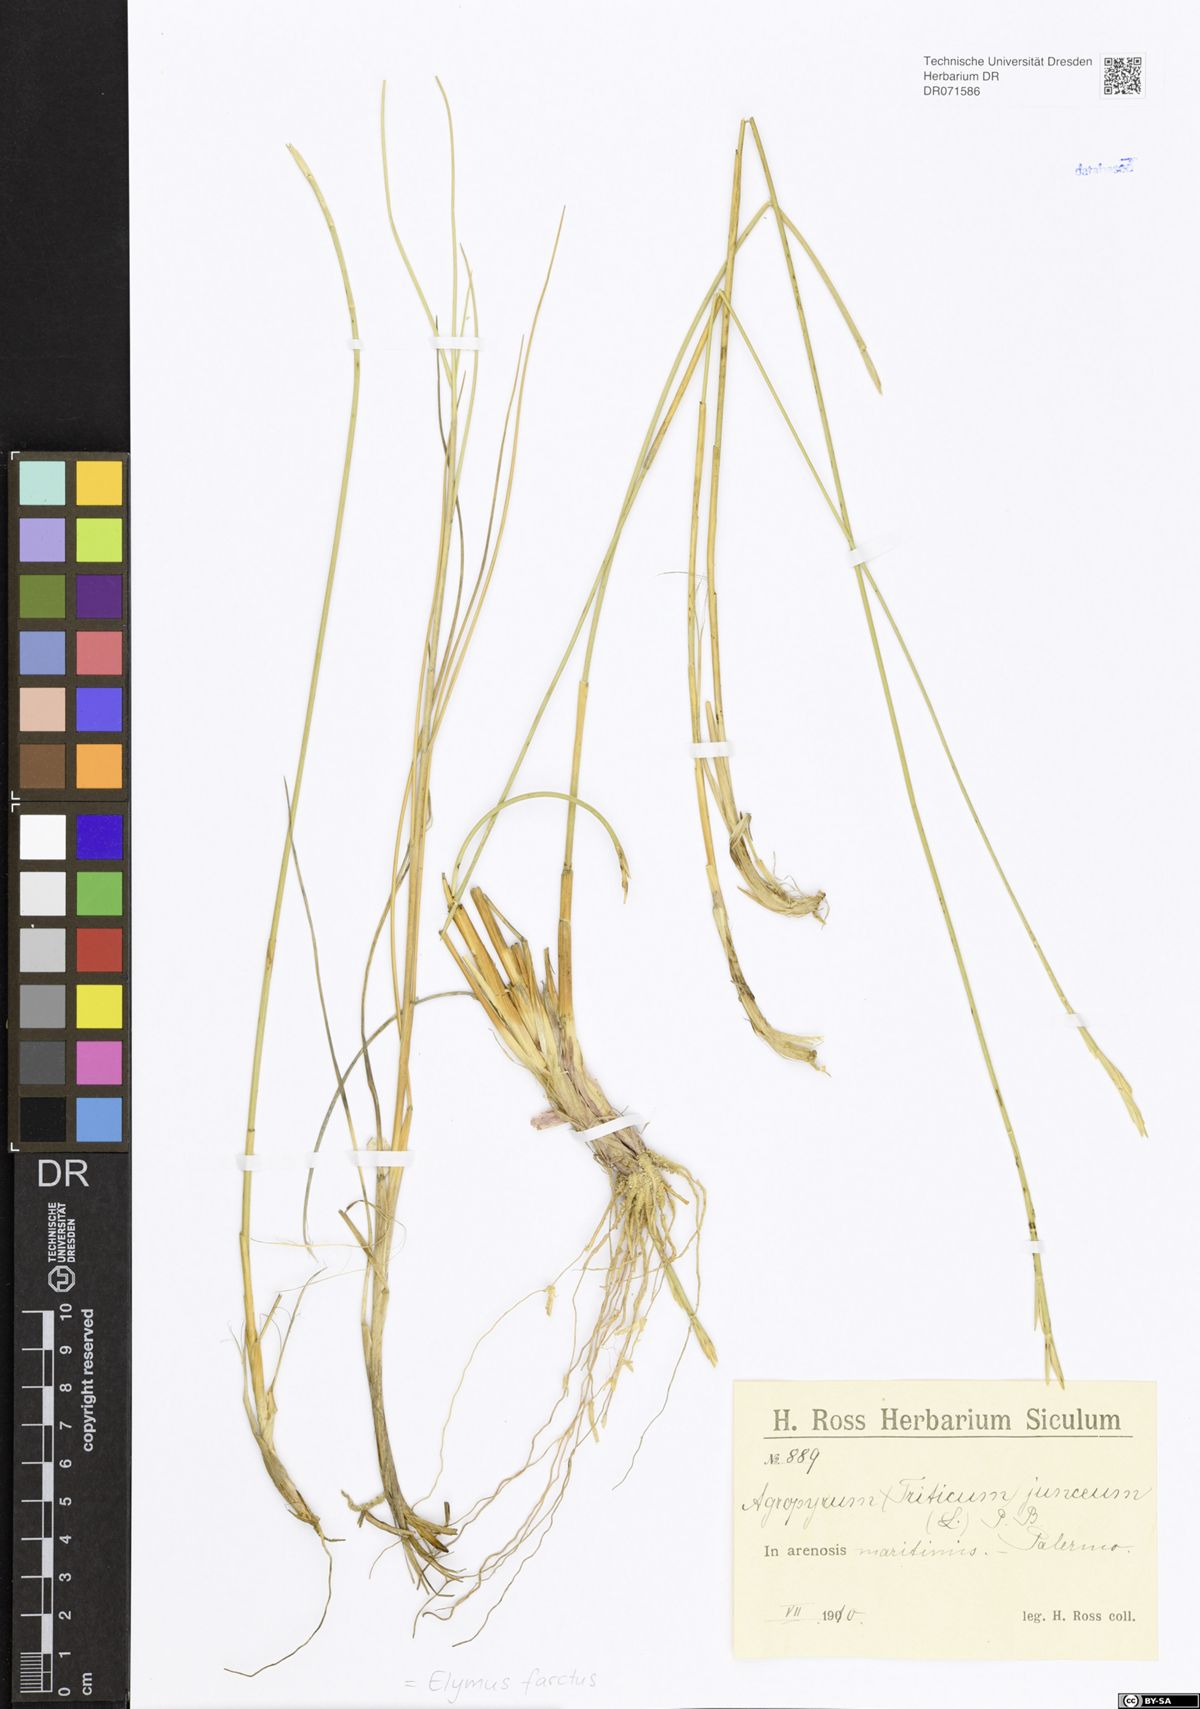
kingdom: Plantae
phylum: Tracheophyta
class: Liliopsida
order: Poales
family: Poaceae
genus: Thinopyrum
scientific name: Thinopyrum junceum
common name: Russian wheatgrass
